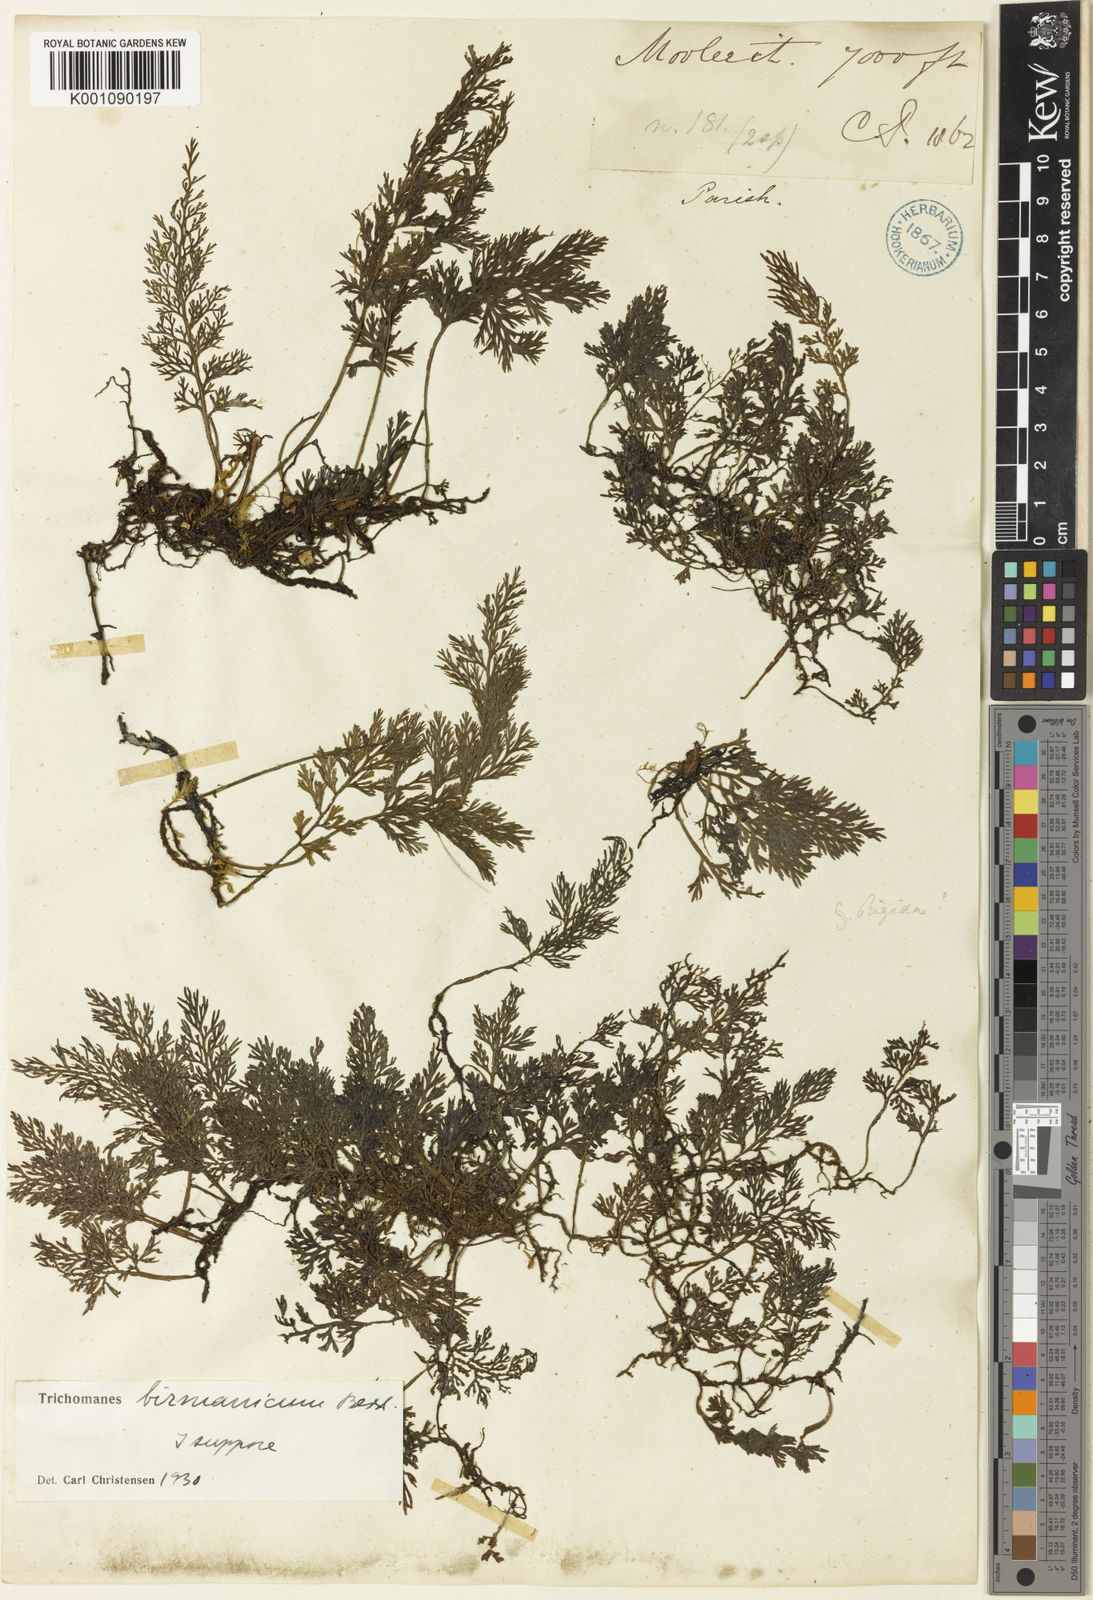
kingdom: Plantae
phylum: Tracheophyta
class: Polypodiopsida
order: Hymenophyllales
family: Hymenophyllaceae
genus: Vandenboschia
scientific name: Vandenboschia birmanica
